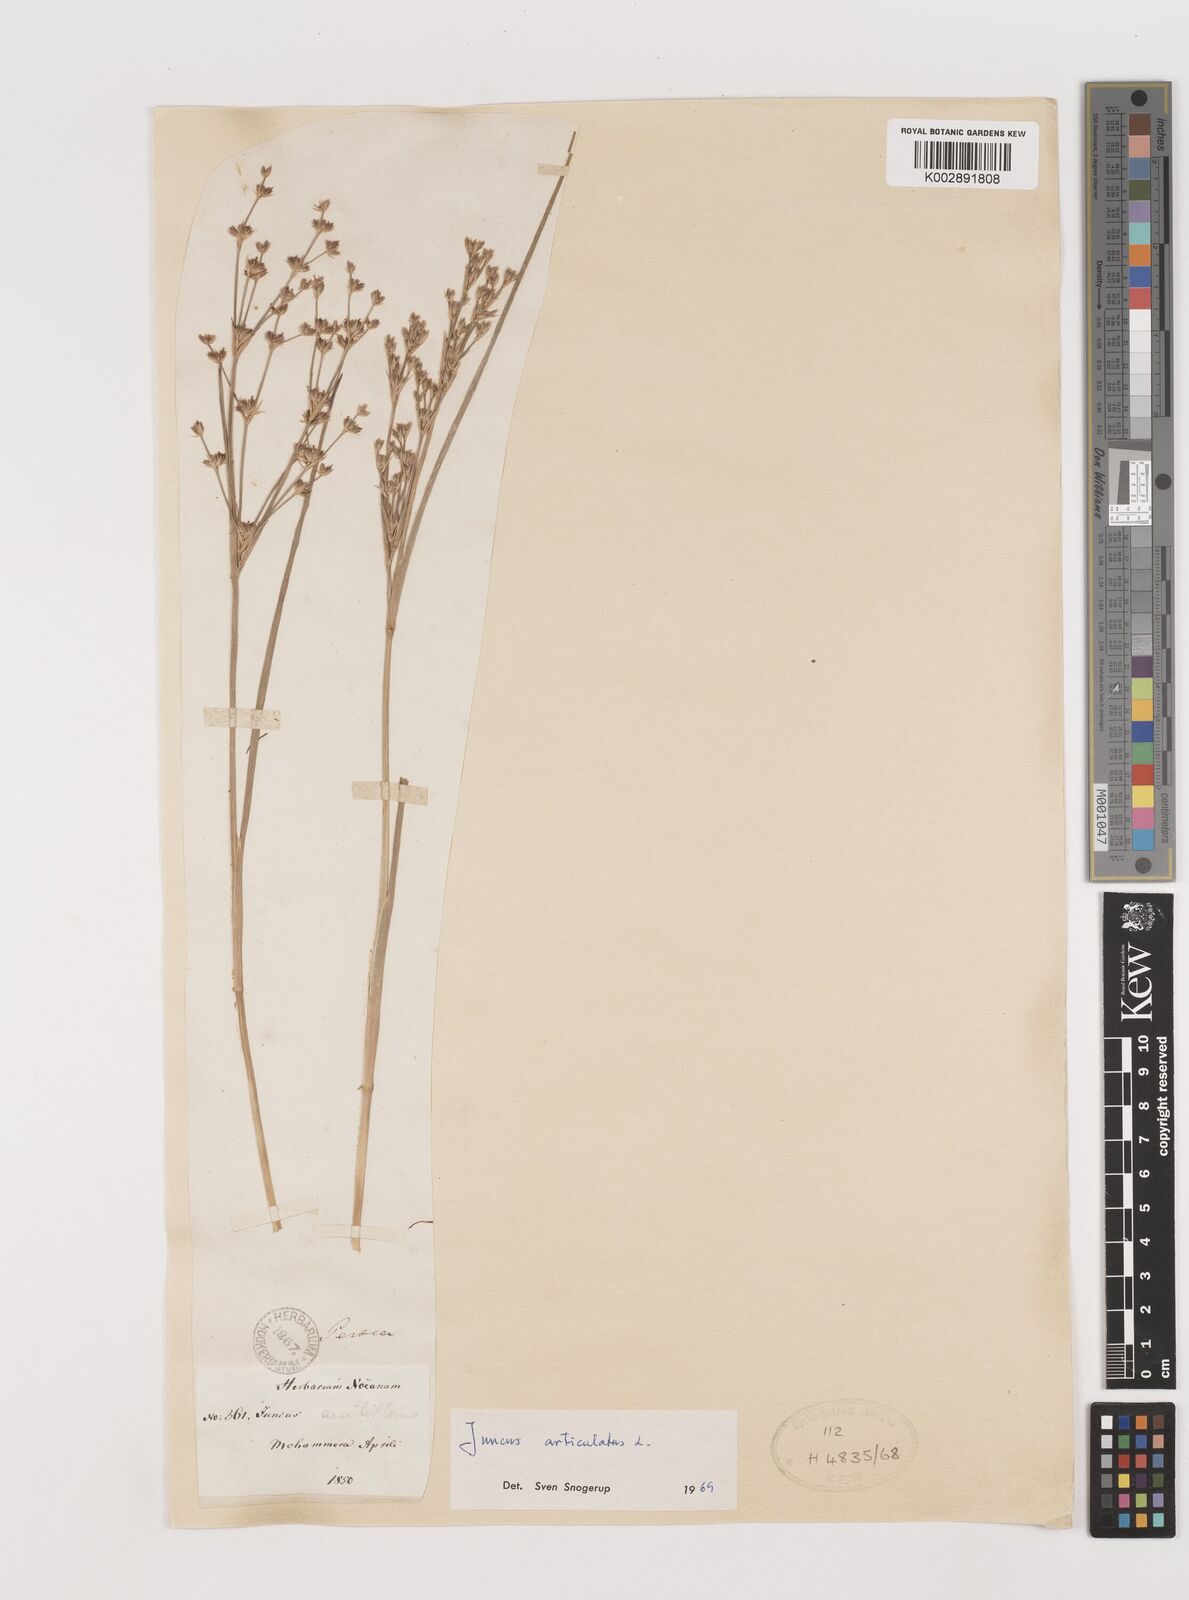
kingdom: Plantae
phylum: Tracheophyta
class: Liliopsida
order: Poales
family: Juncaceae
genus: Juncus
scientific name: Juncus articulatus
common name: Jointed rush
